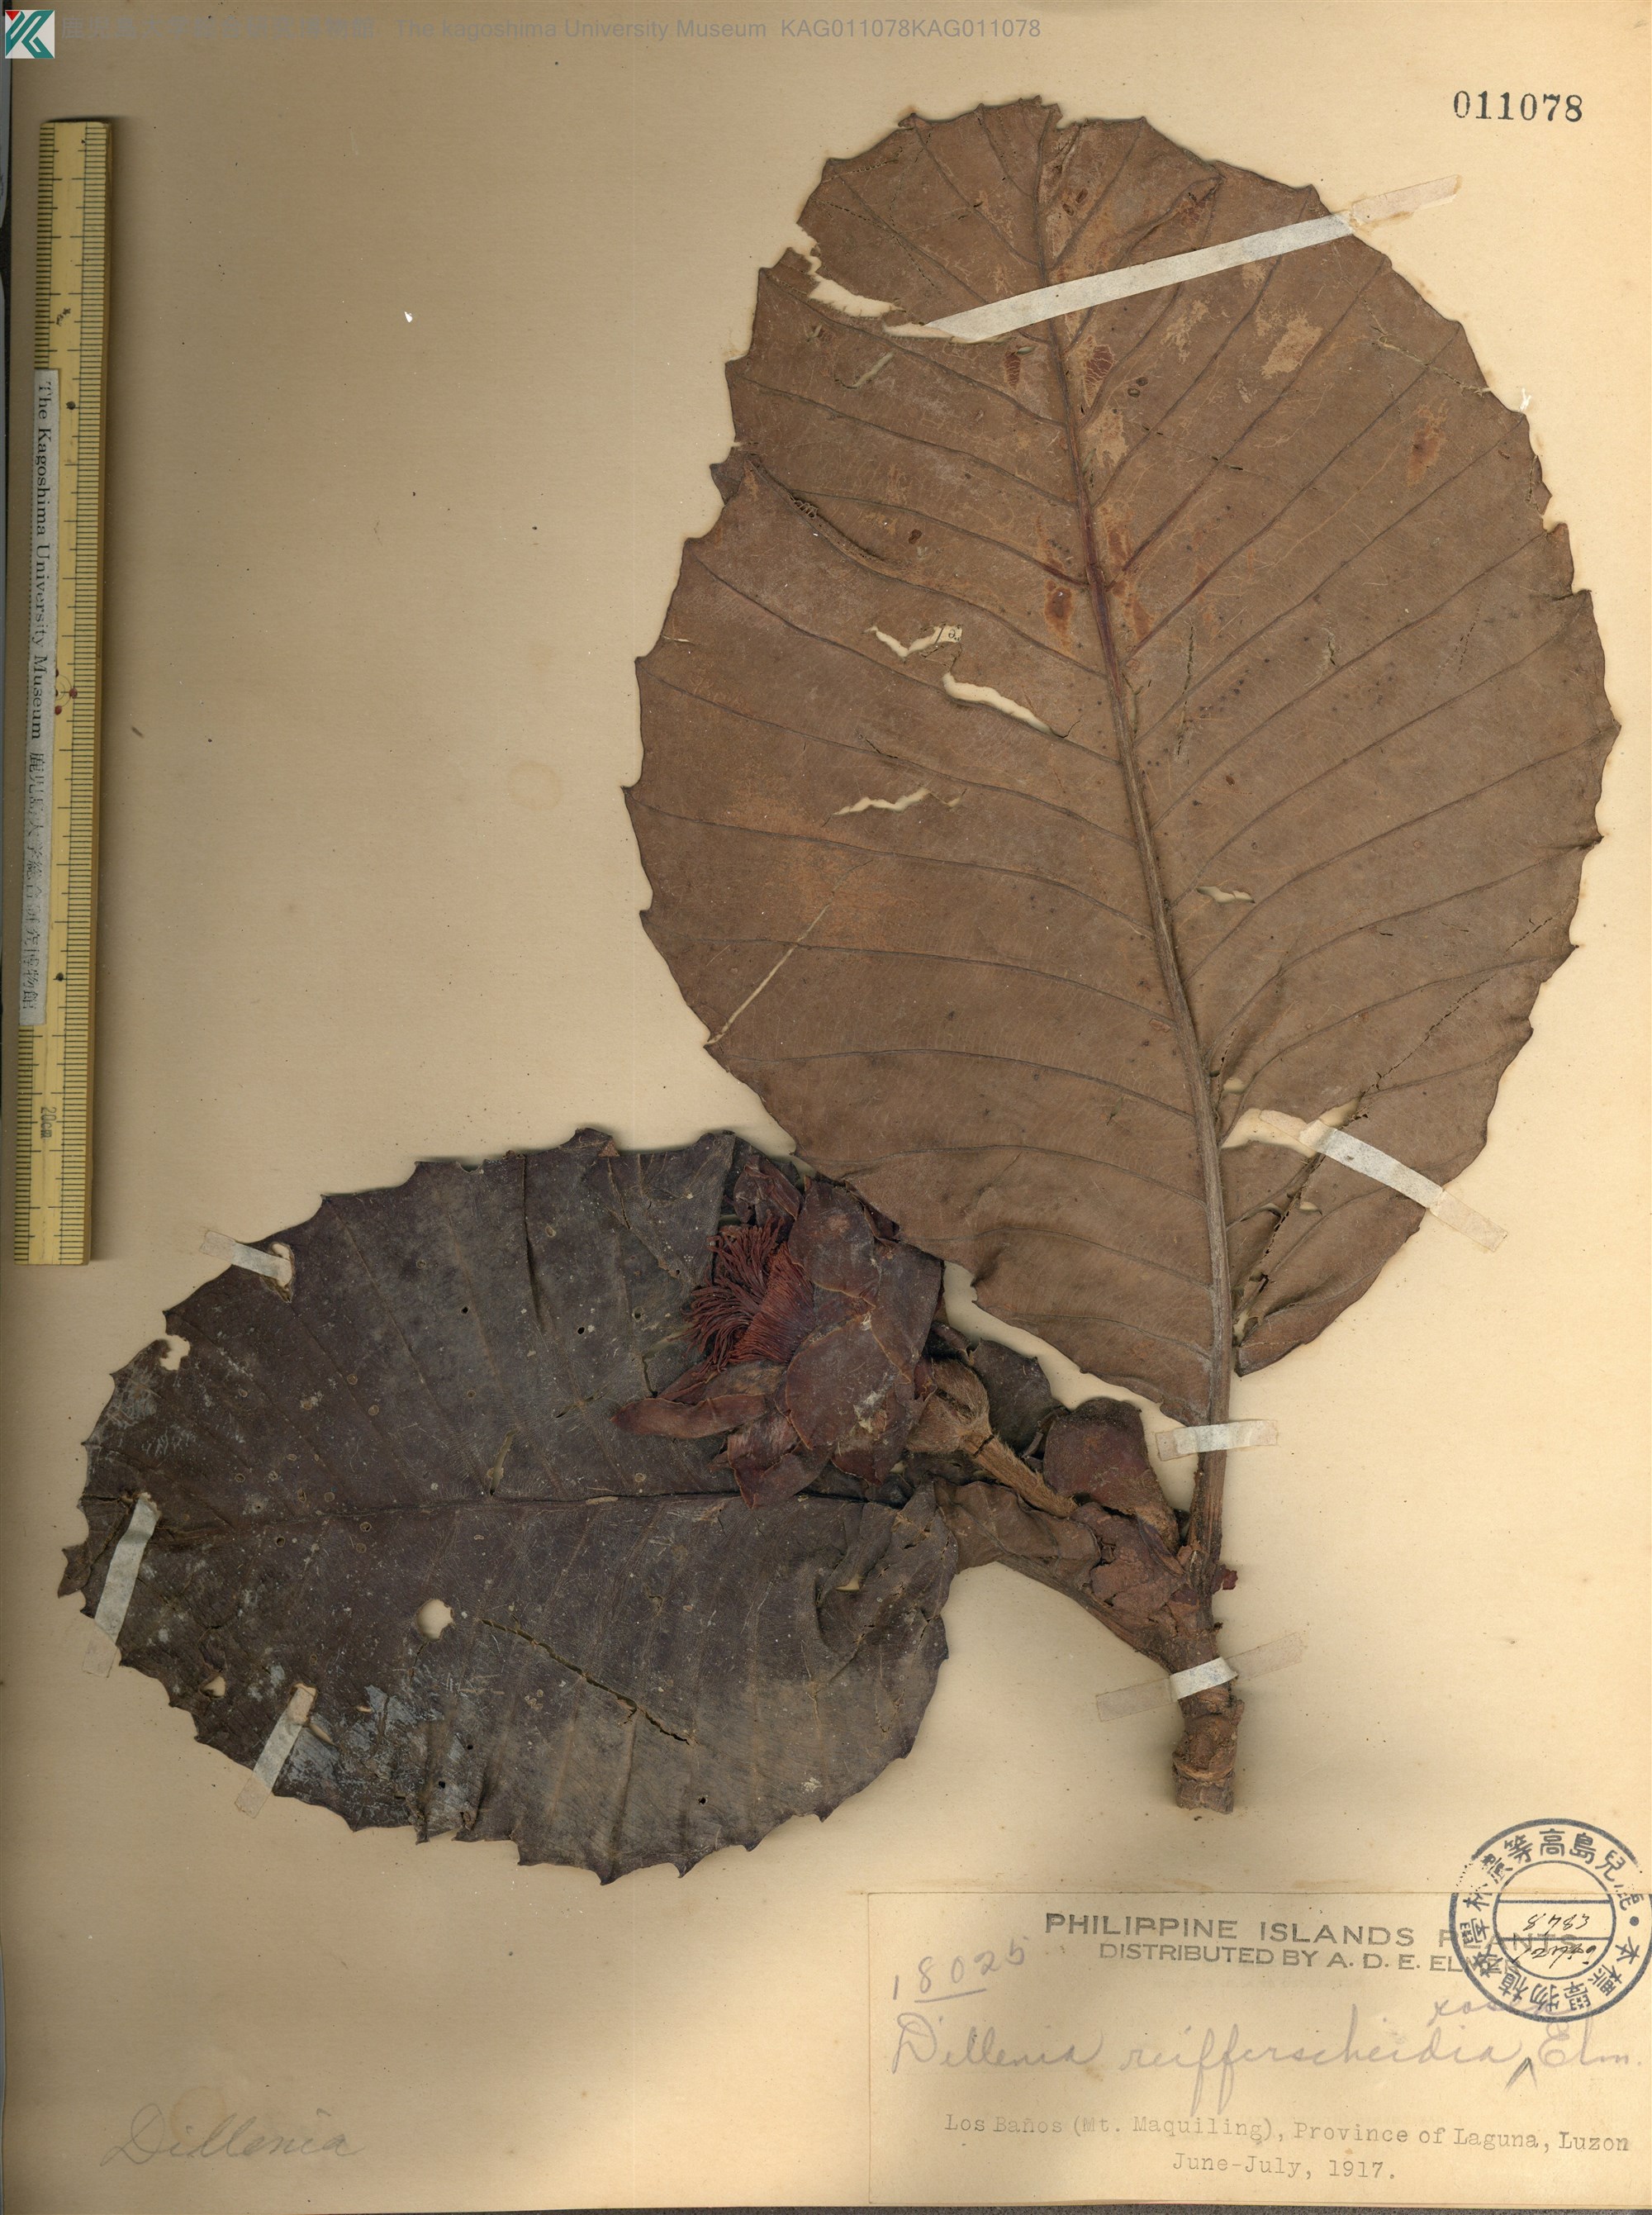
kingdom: Plantae
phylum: Tracheophyta
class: Magnoliopsida
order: Dilleniales
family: Dilleniaceae
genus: Dillenia
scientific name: Dillenia reifferscheidia
